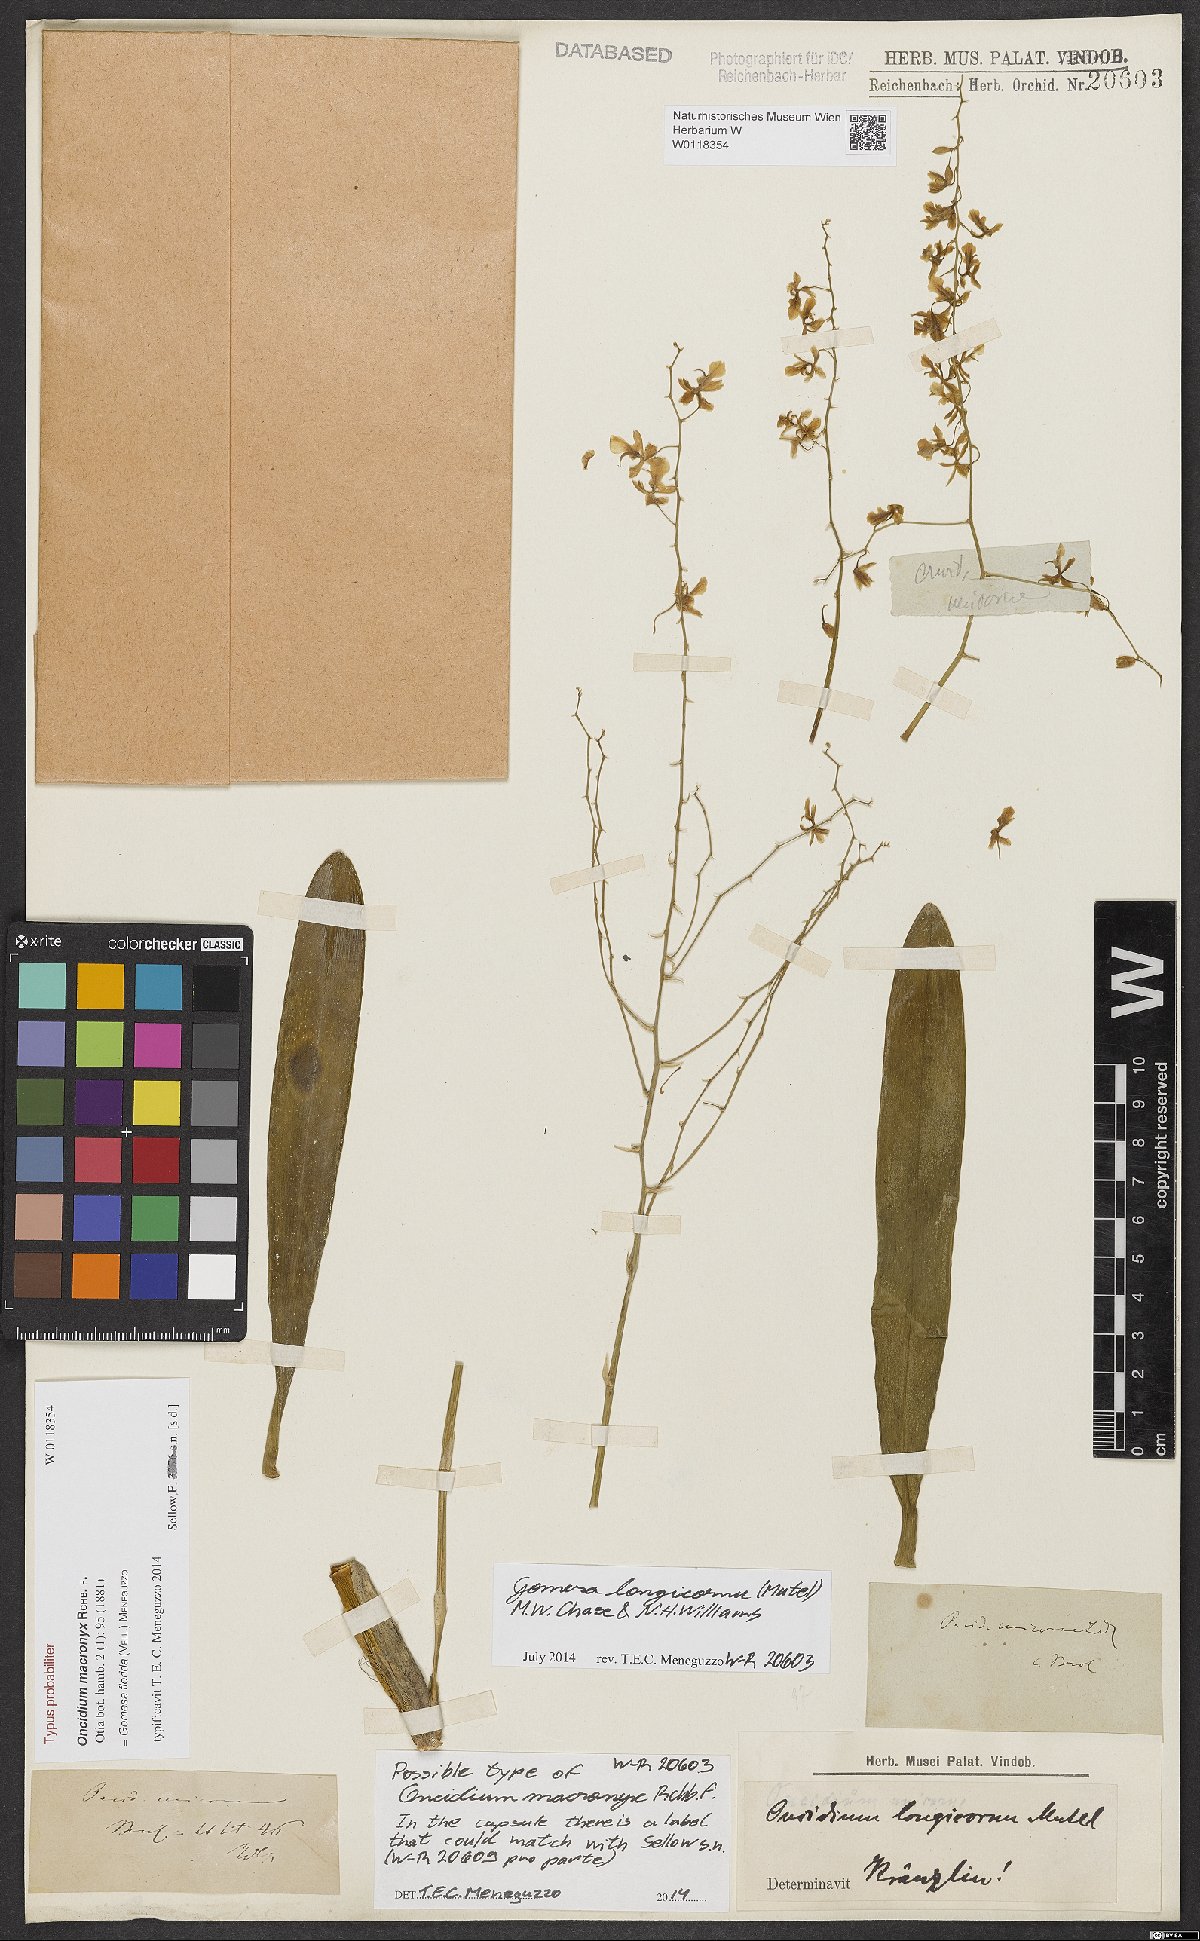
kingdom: Plantae
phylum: Tracheophyta
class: Liliopsida
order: Asparagales
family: Orchidaceae
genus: Gomesa
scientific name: Gomesa florida
